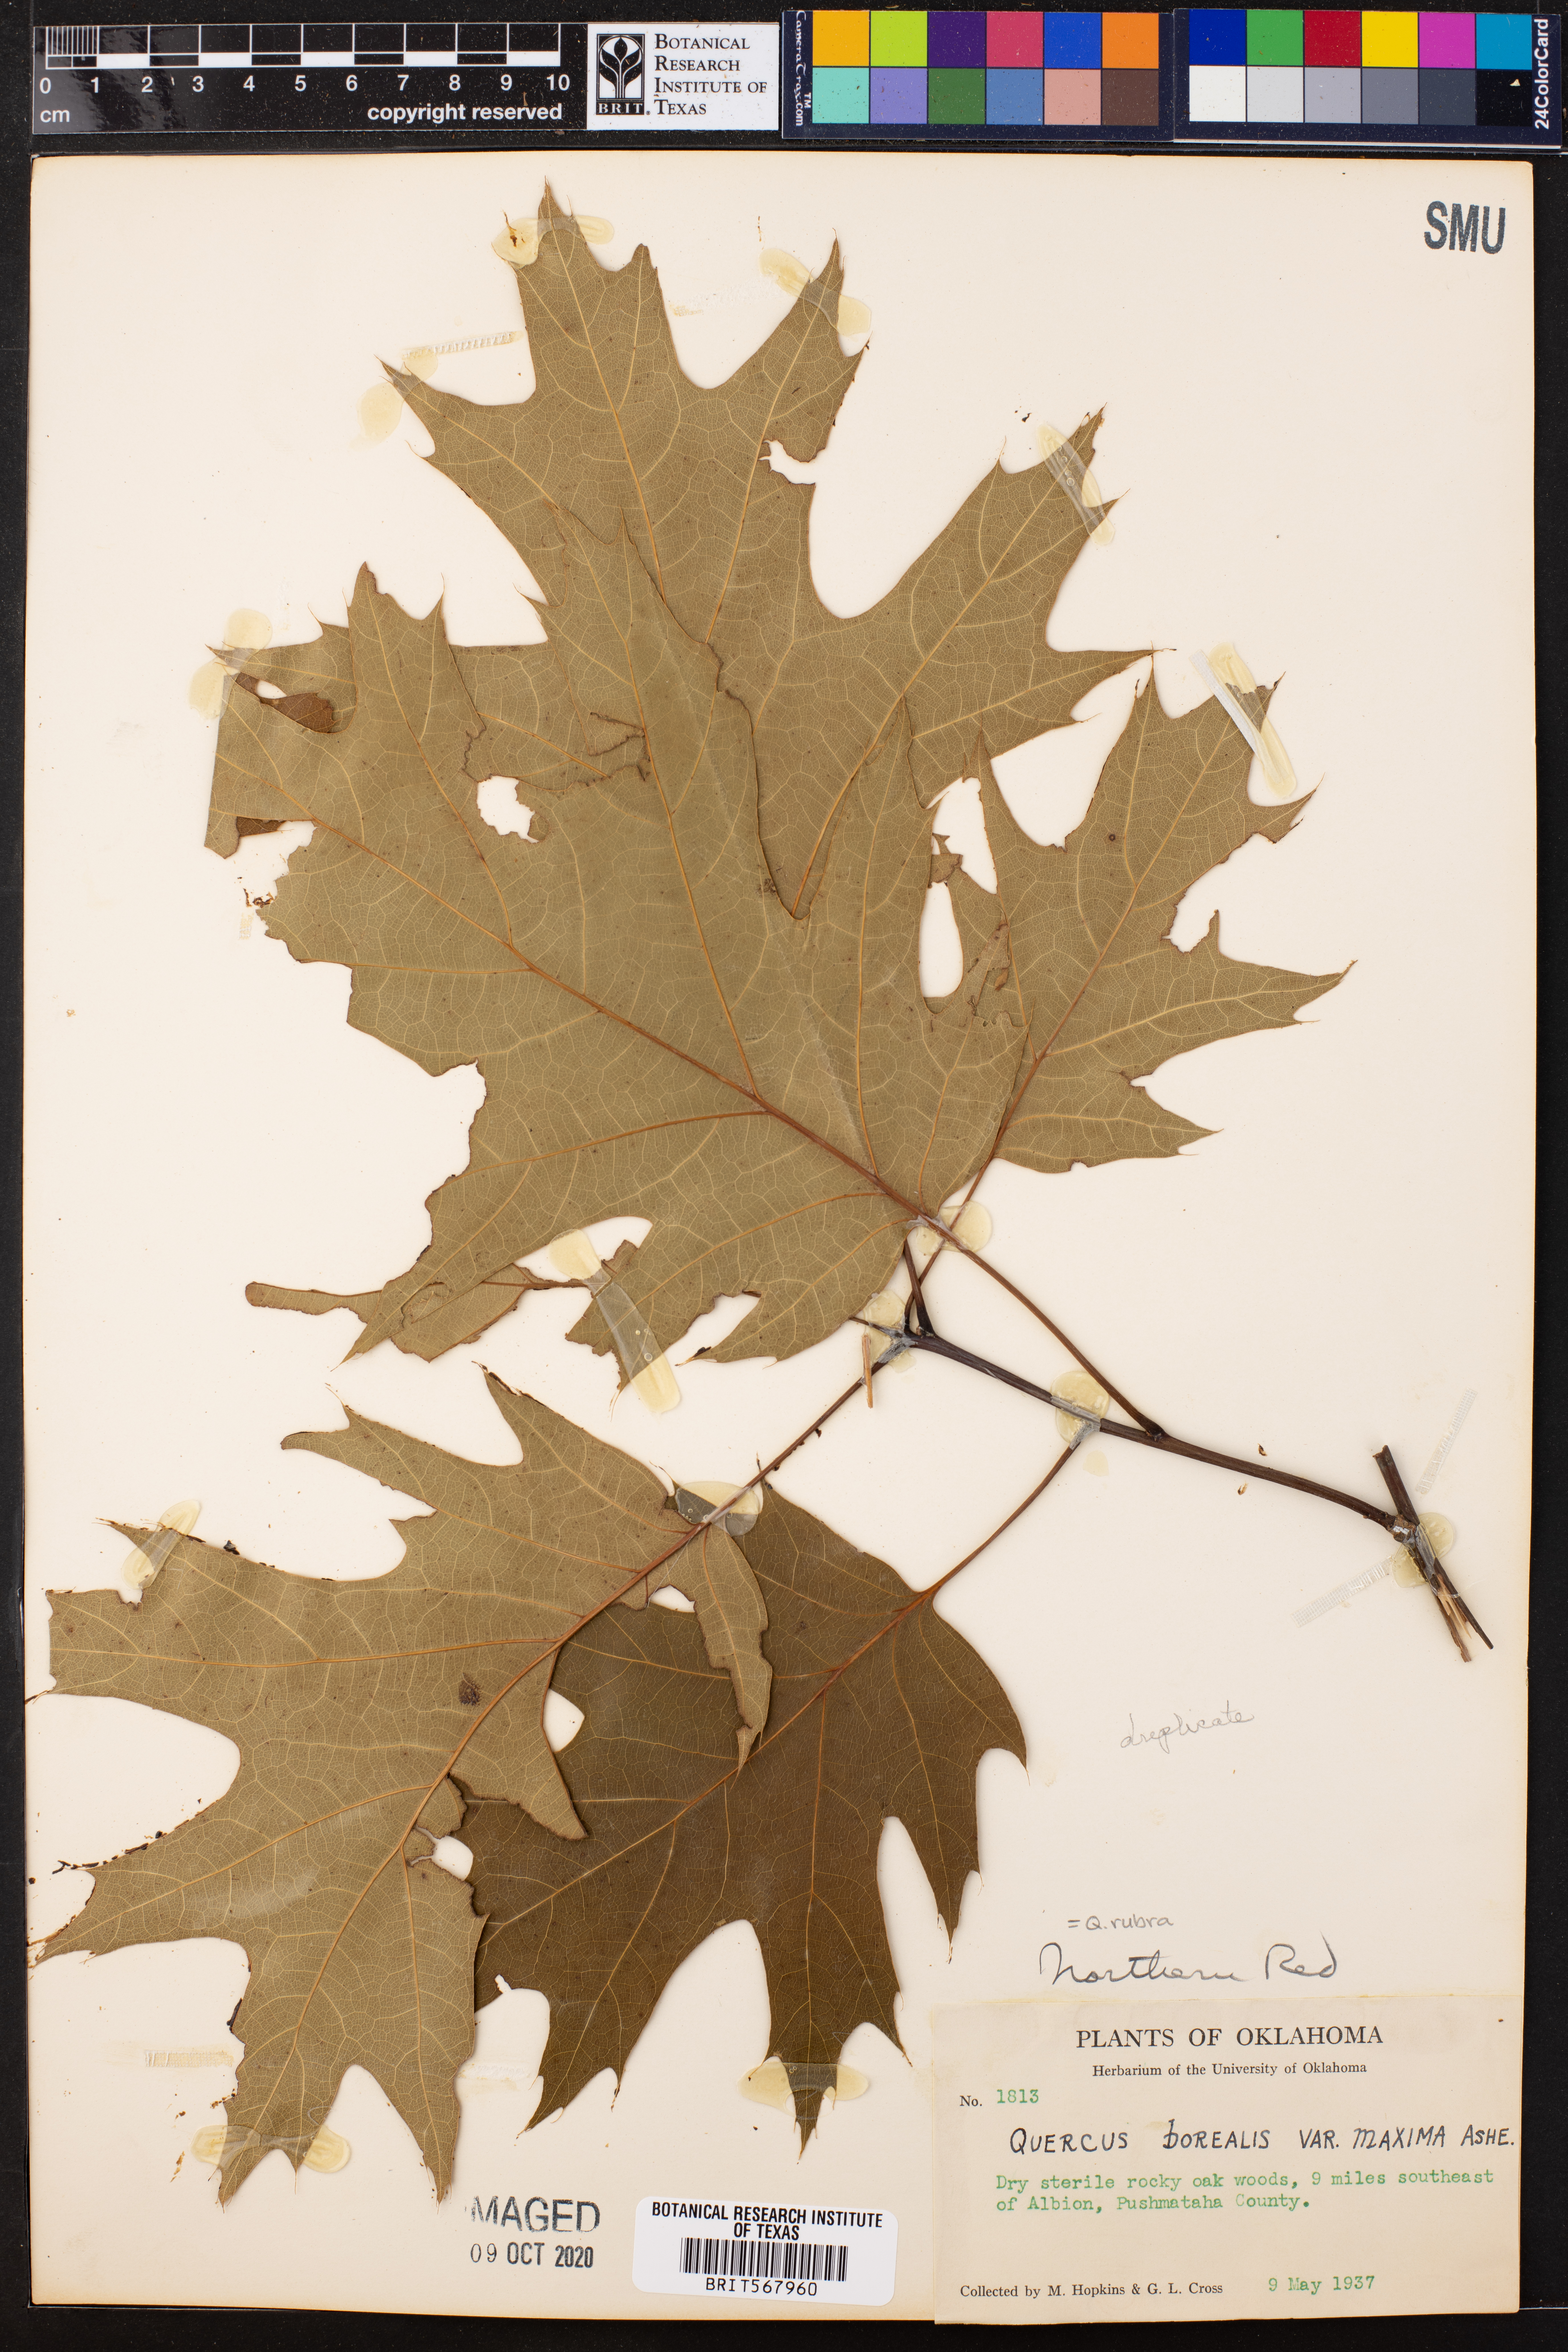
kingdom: Plantae
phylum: Tracheophyta
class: Magnoliopsida
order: Fagales
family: Fagaceae
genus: Quercus
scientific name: Quercus rubra
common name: Red oak
